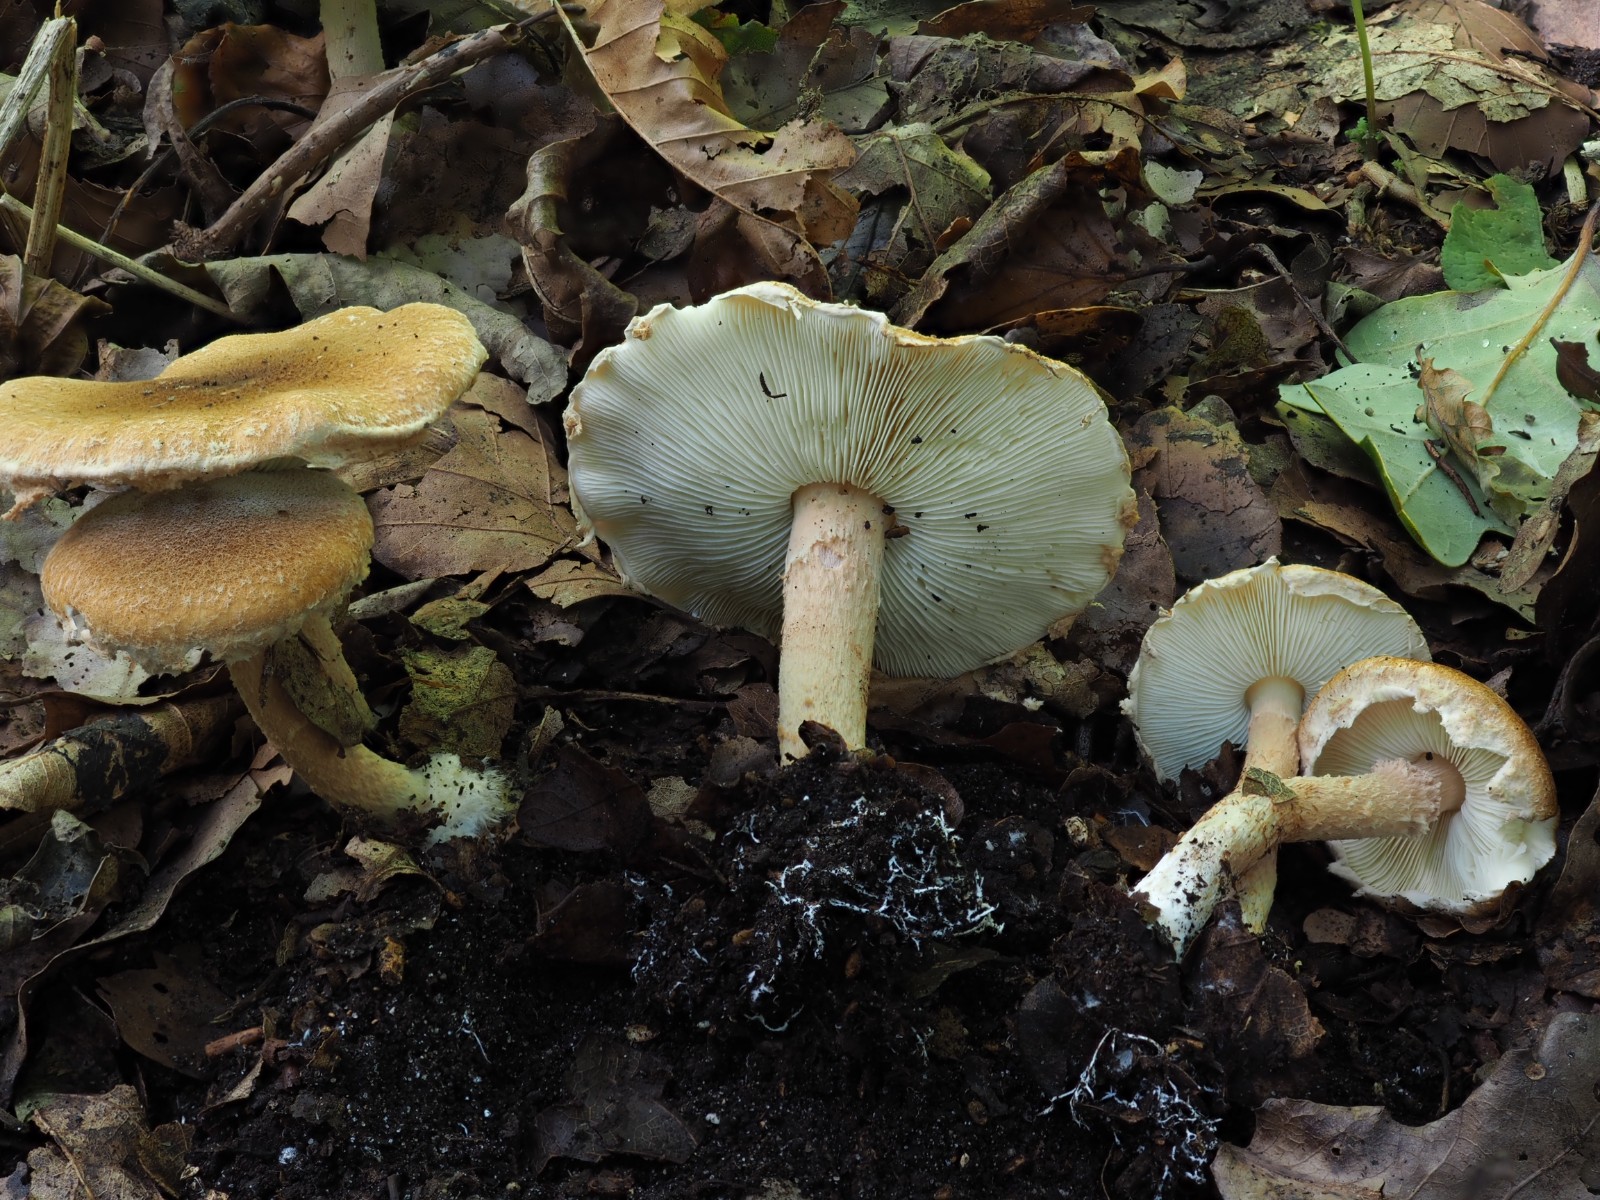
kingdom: Fungi
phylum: Basidiomycota
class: Agaricomycetes
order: Agaricales
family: Agaricaceae
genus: Leucocoprinus
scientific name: Leucocoprinus straminellus
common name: rustbrun parasolhat
